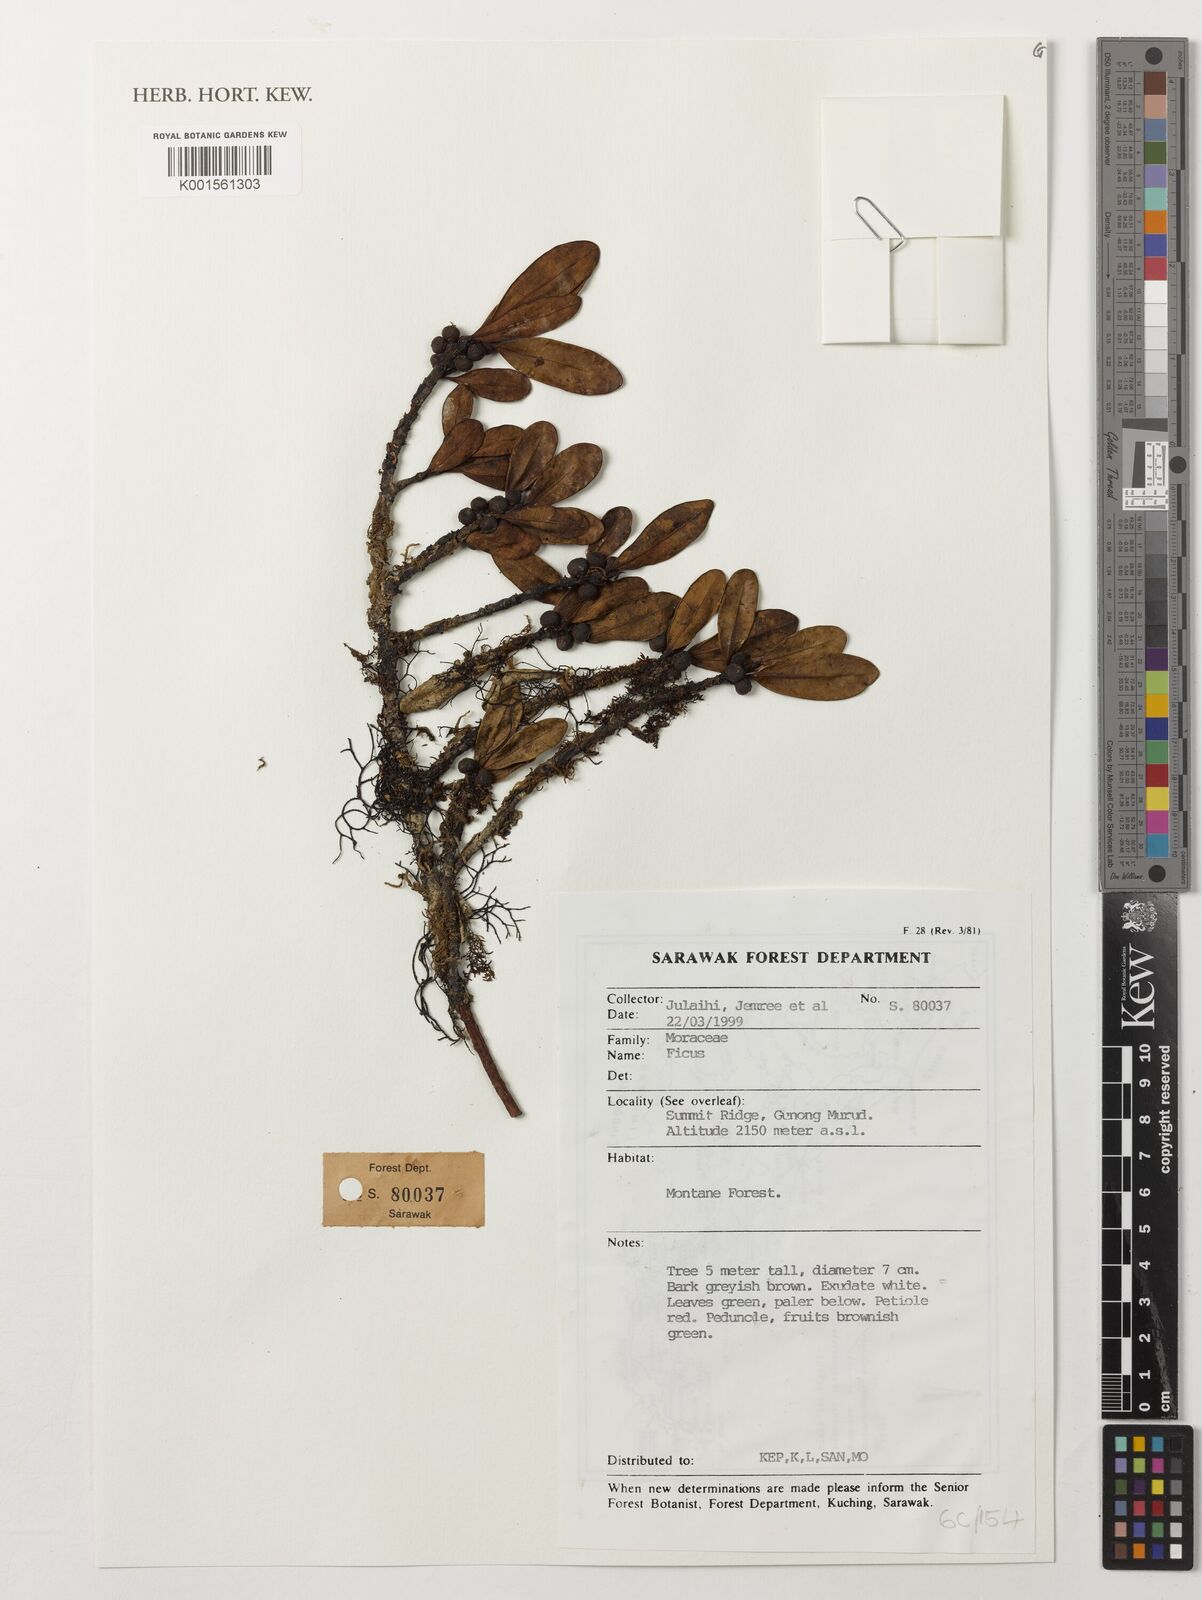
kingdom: Plantae
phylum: Tracheophyta
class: Magnoliopsida
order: Rosales
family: Moraceae
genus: Ficus
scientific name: Ficus
